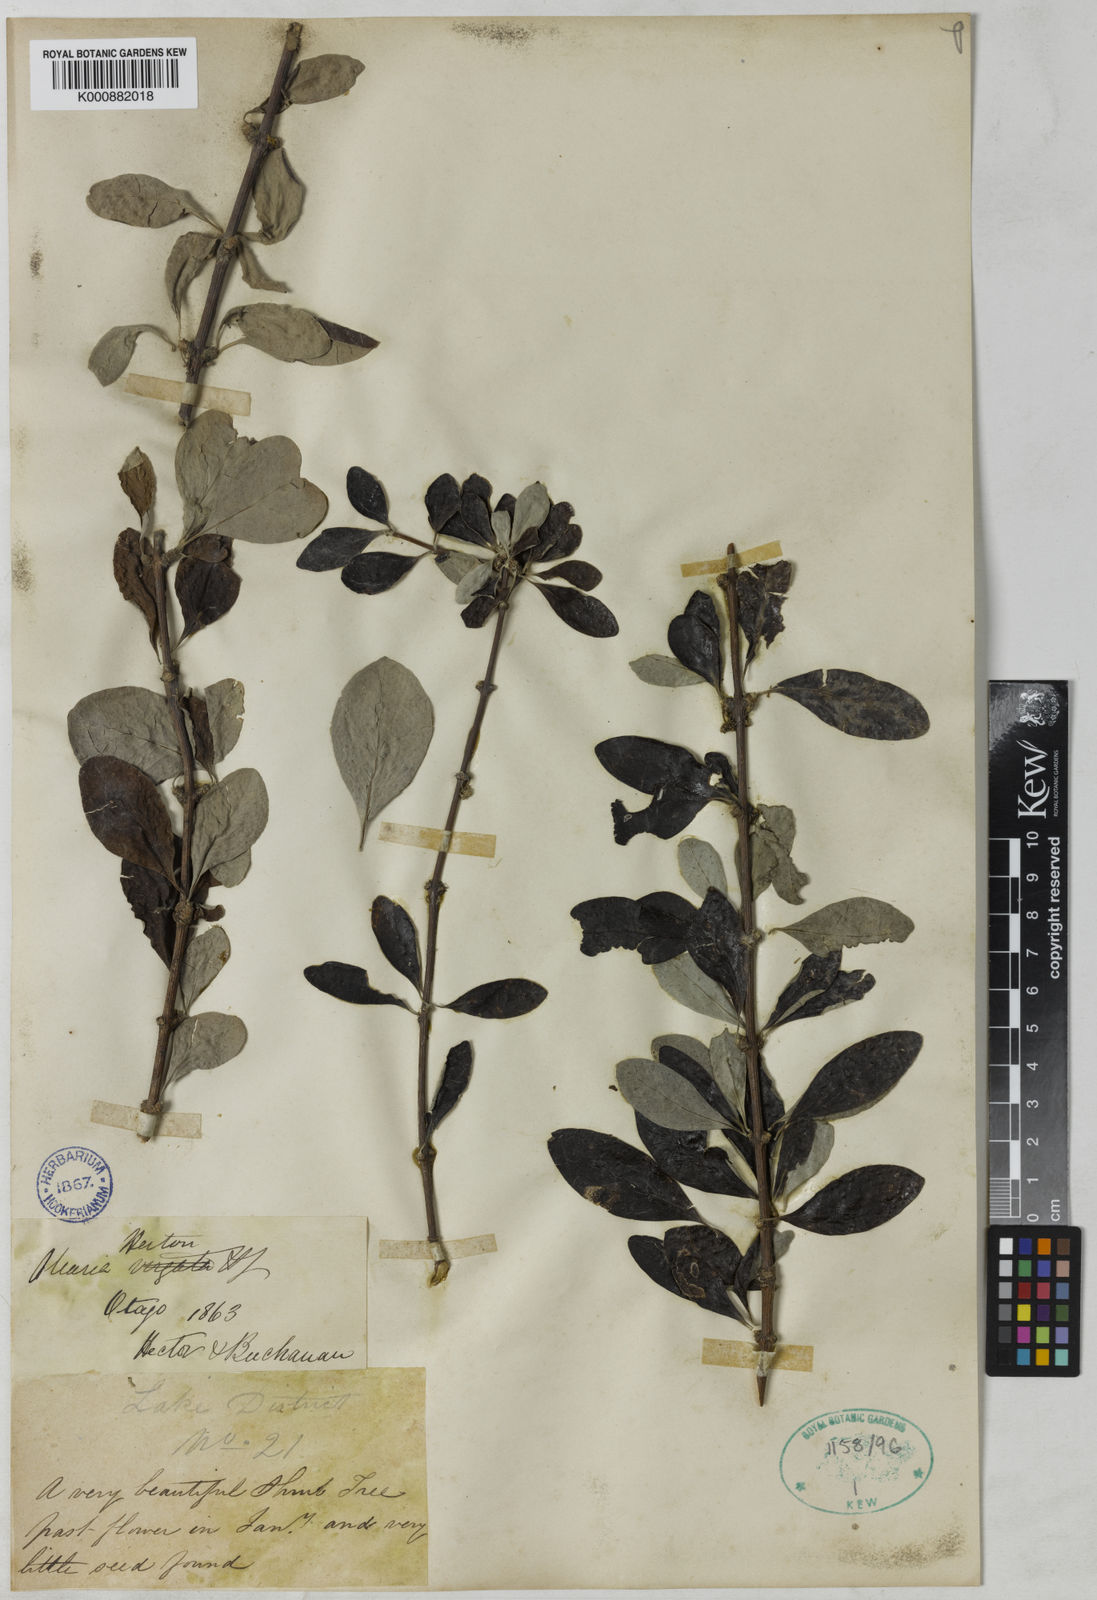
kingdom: Plantae
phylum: Tracheophyta
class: Magnoliopsida
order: Asterales
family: Asteraceae
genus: Olearia
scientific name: Olearia hectorii
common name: Deciduous tree daisy
